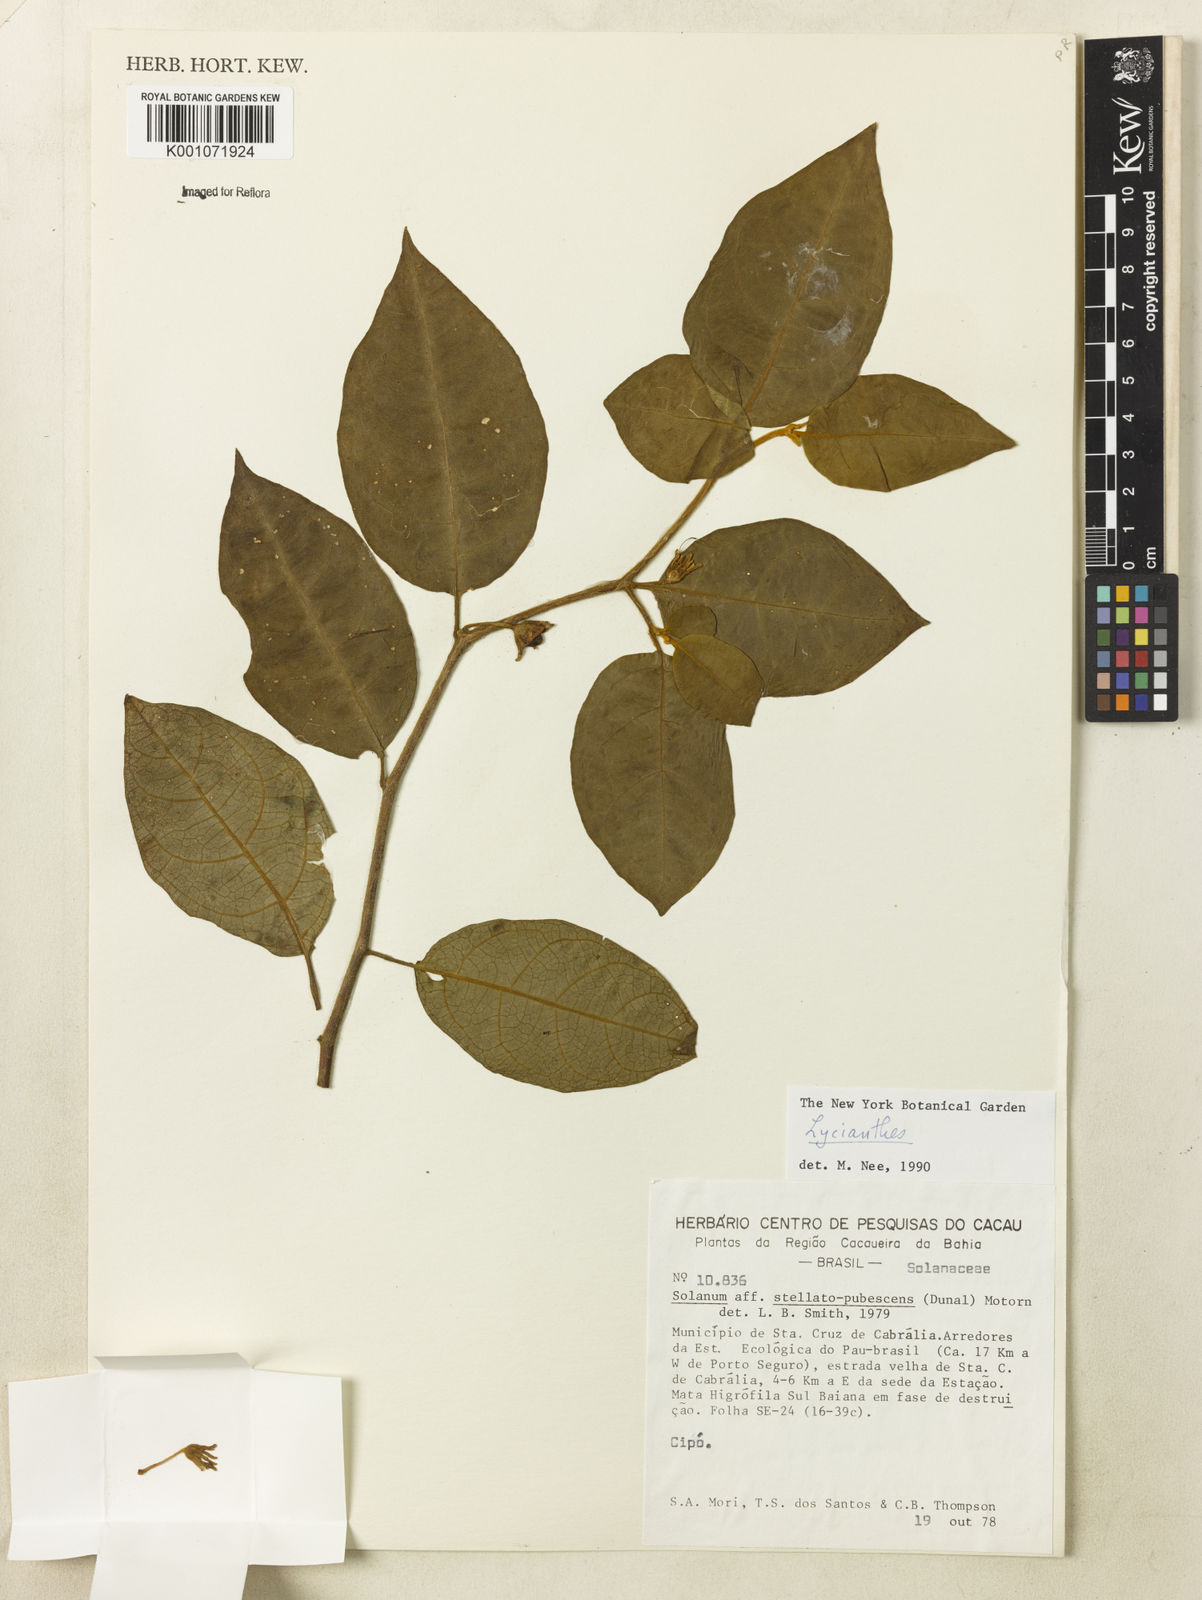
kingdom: Plantae
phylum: Tracheophyta
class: Magnoliopsida
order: Solanales
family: Solanaceae
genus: Lycianthes
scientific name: Lycianthes
